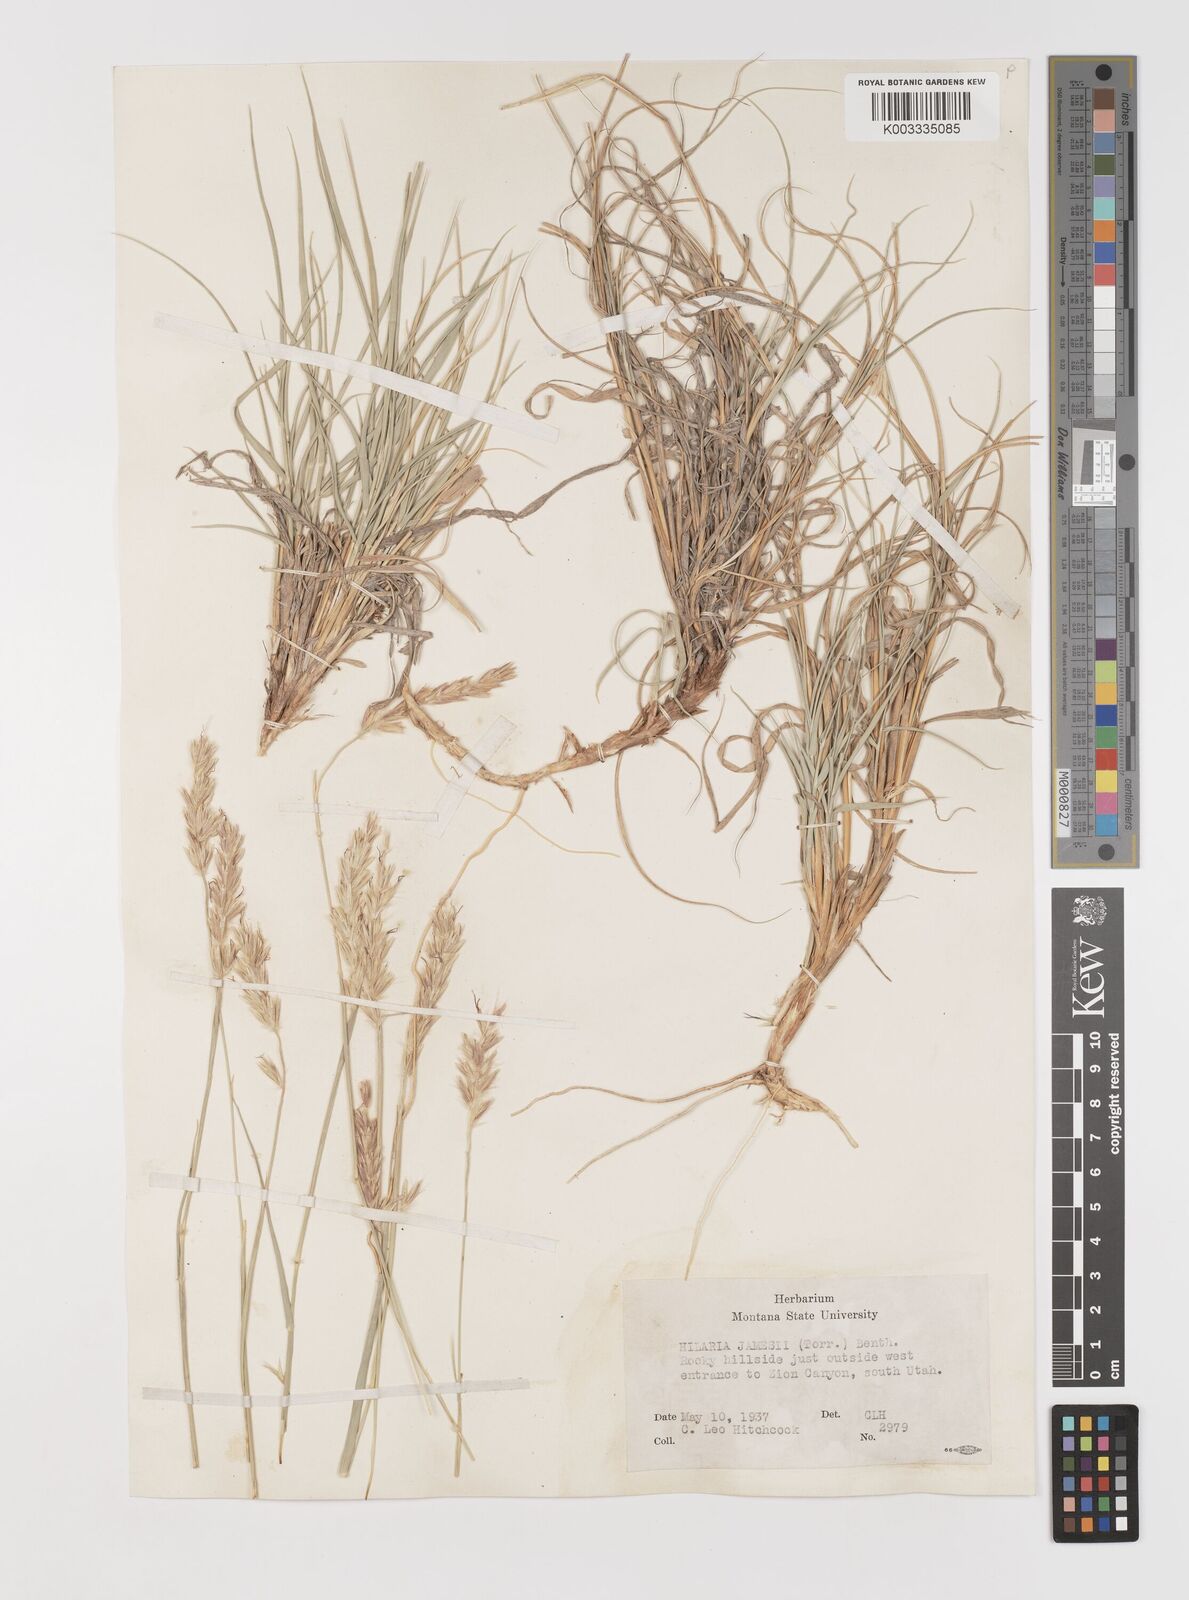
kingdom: Plantae
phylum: Tracheophyta
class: Liliopsida
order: Poales
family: Poaceae
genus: Hilaria
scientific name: Hilaria jamesii
